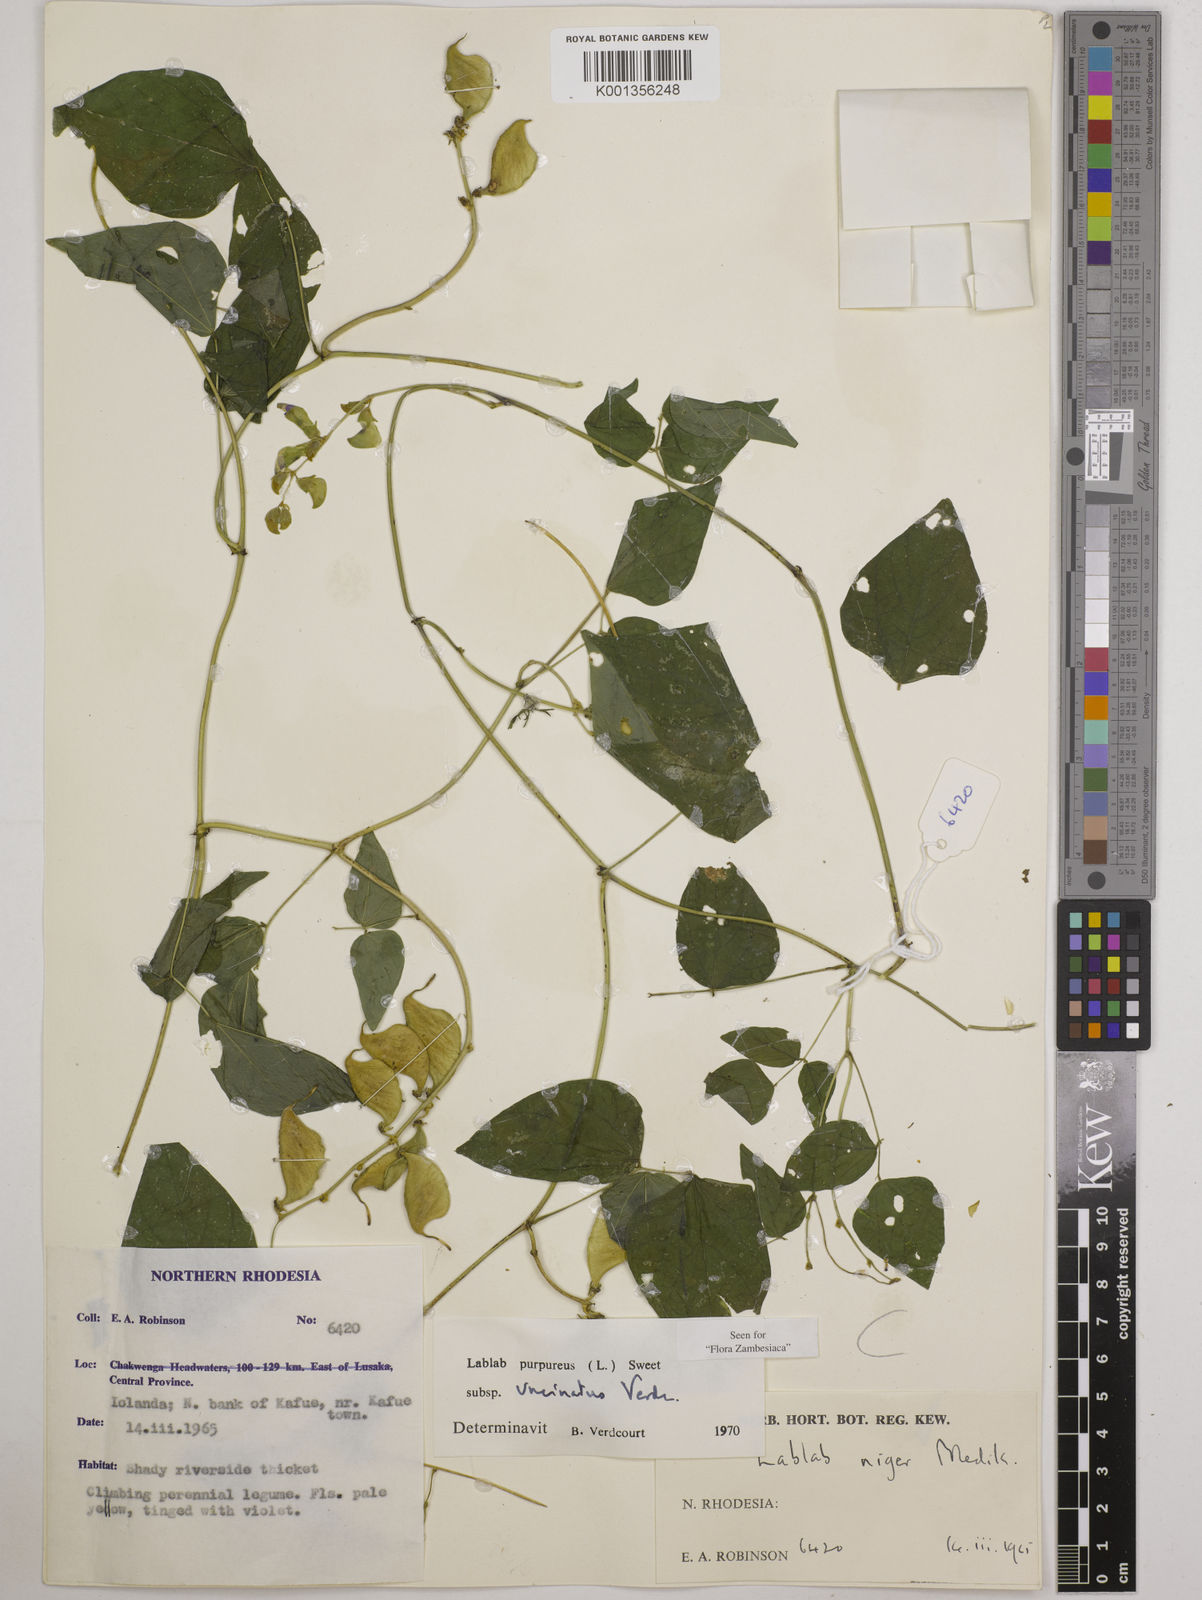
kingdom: Plantae
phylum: Tracheophyta
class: Magnoliopsida
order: Fabales
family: Fabaceae
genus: Lablab
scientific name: Lablab purpureus
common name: Lablab-bean
